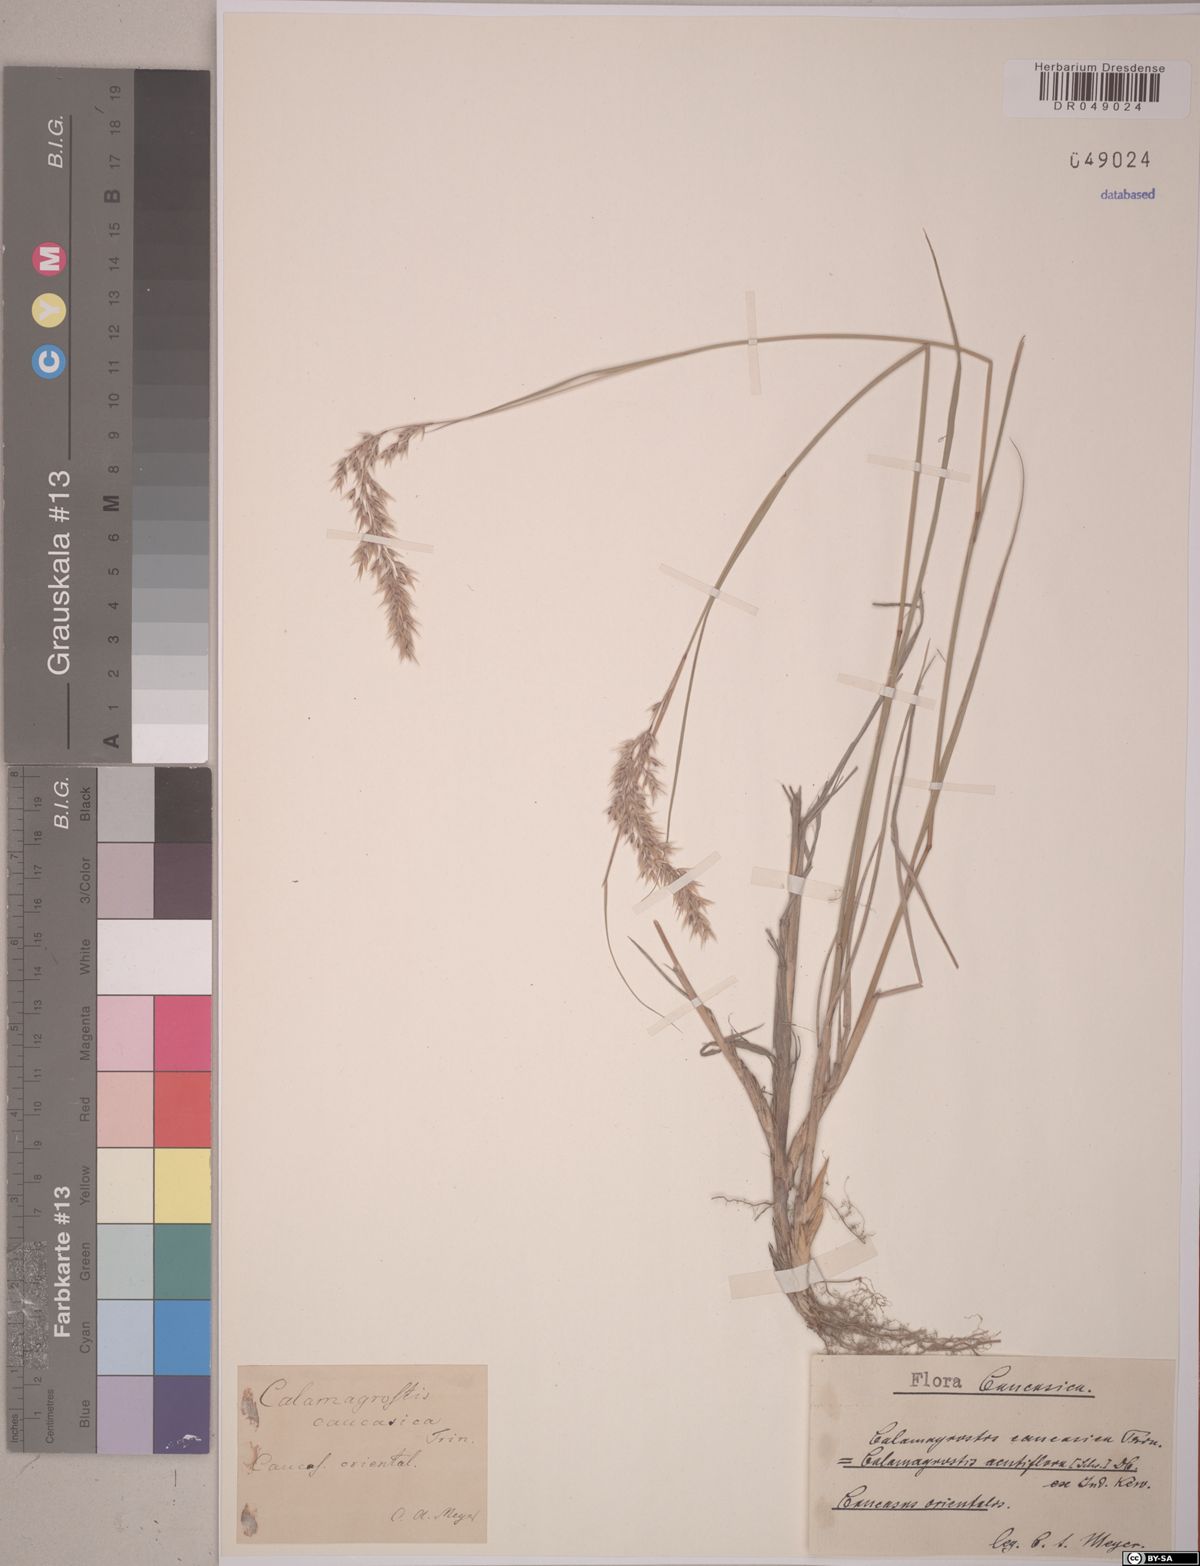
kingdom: Plantae
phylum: Tracheophyta
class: Liliopsida
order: Poales
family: Poaceae
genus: Calamagrostis
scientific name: Calamagrostis caucasica
